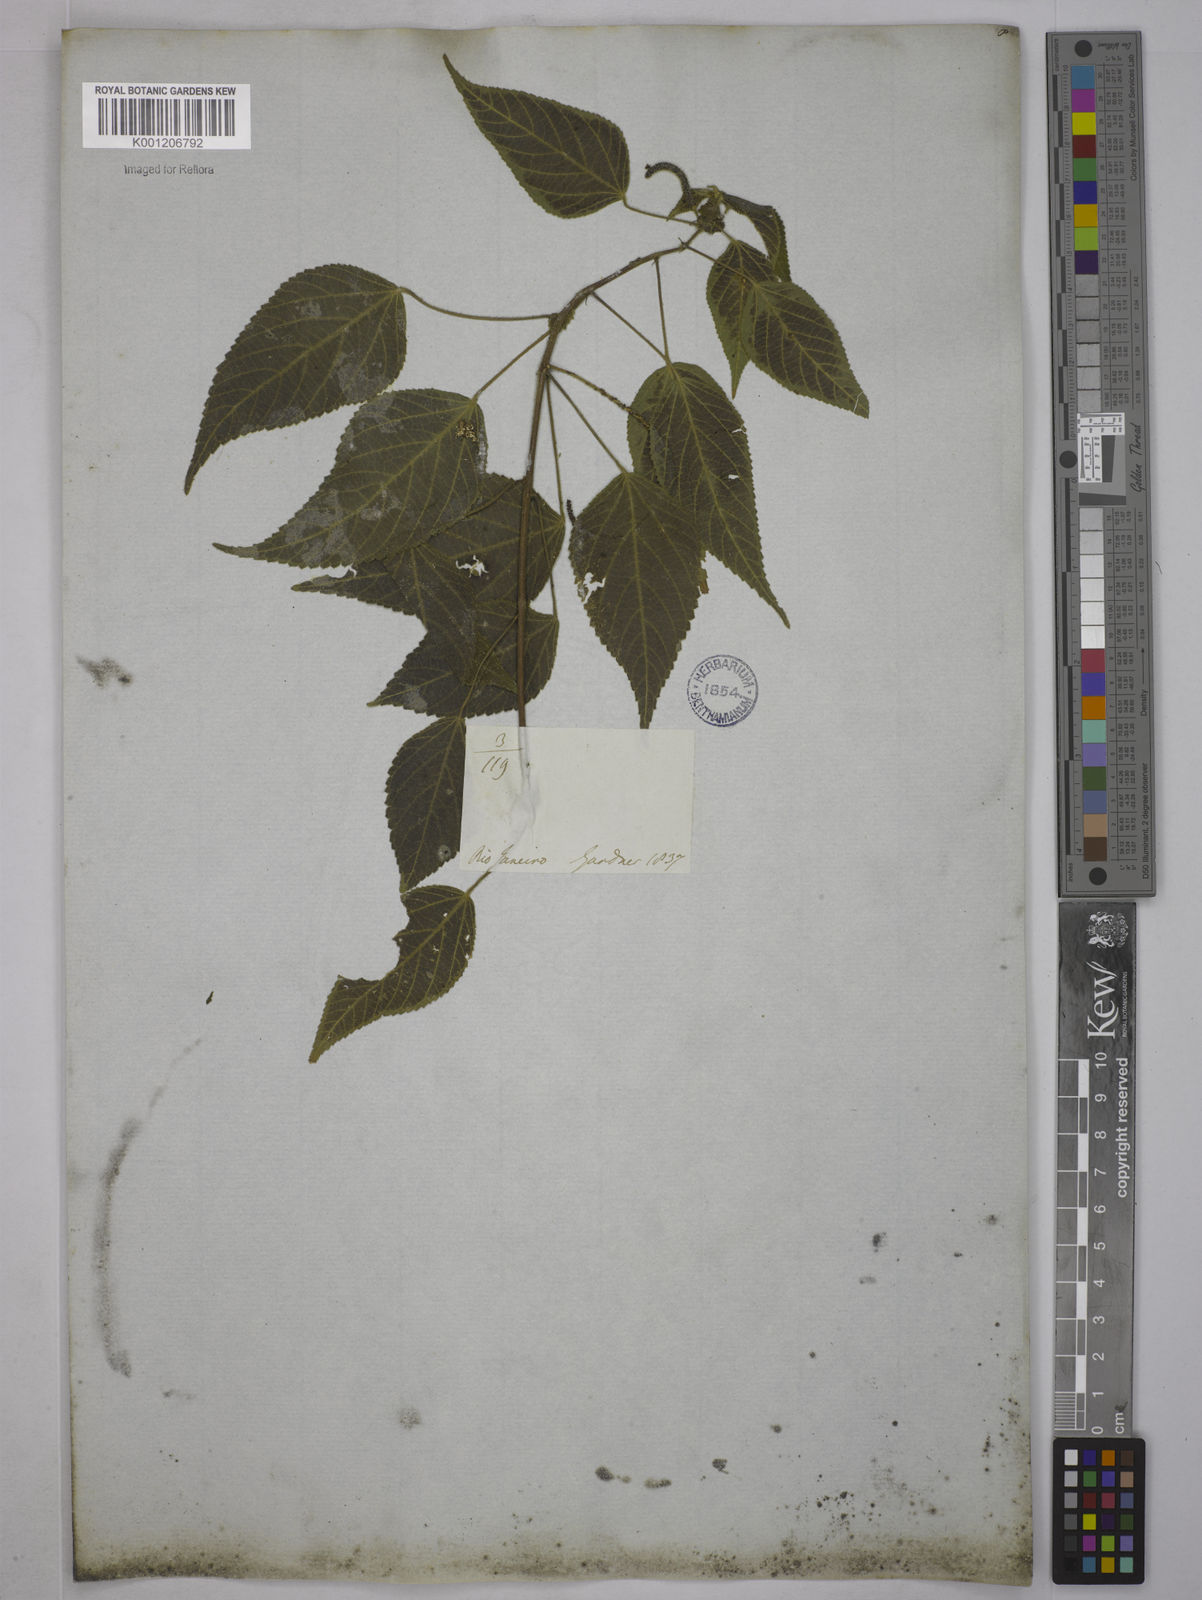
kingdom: Plantae
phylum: Tracheophyta
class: Magnoliopsida
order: Malpighiales
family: Euphorbiaceae
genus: Acalypha
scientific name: Acalypha
